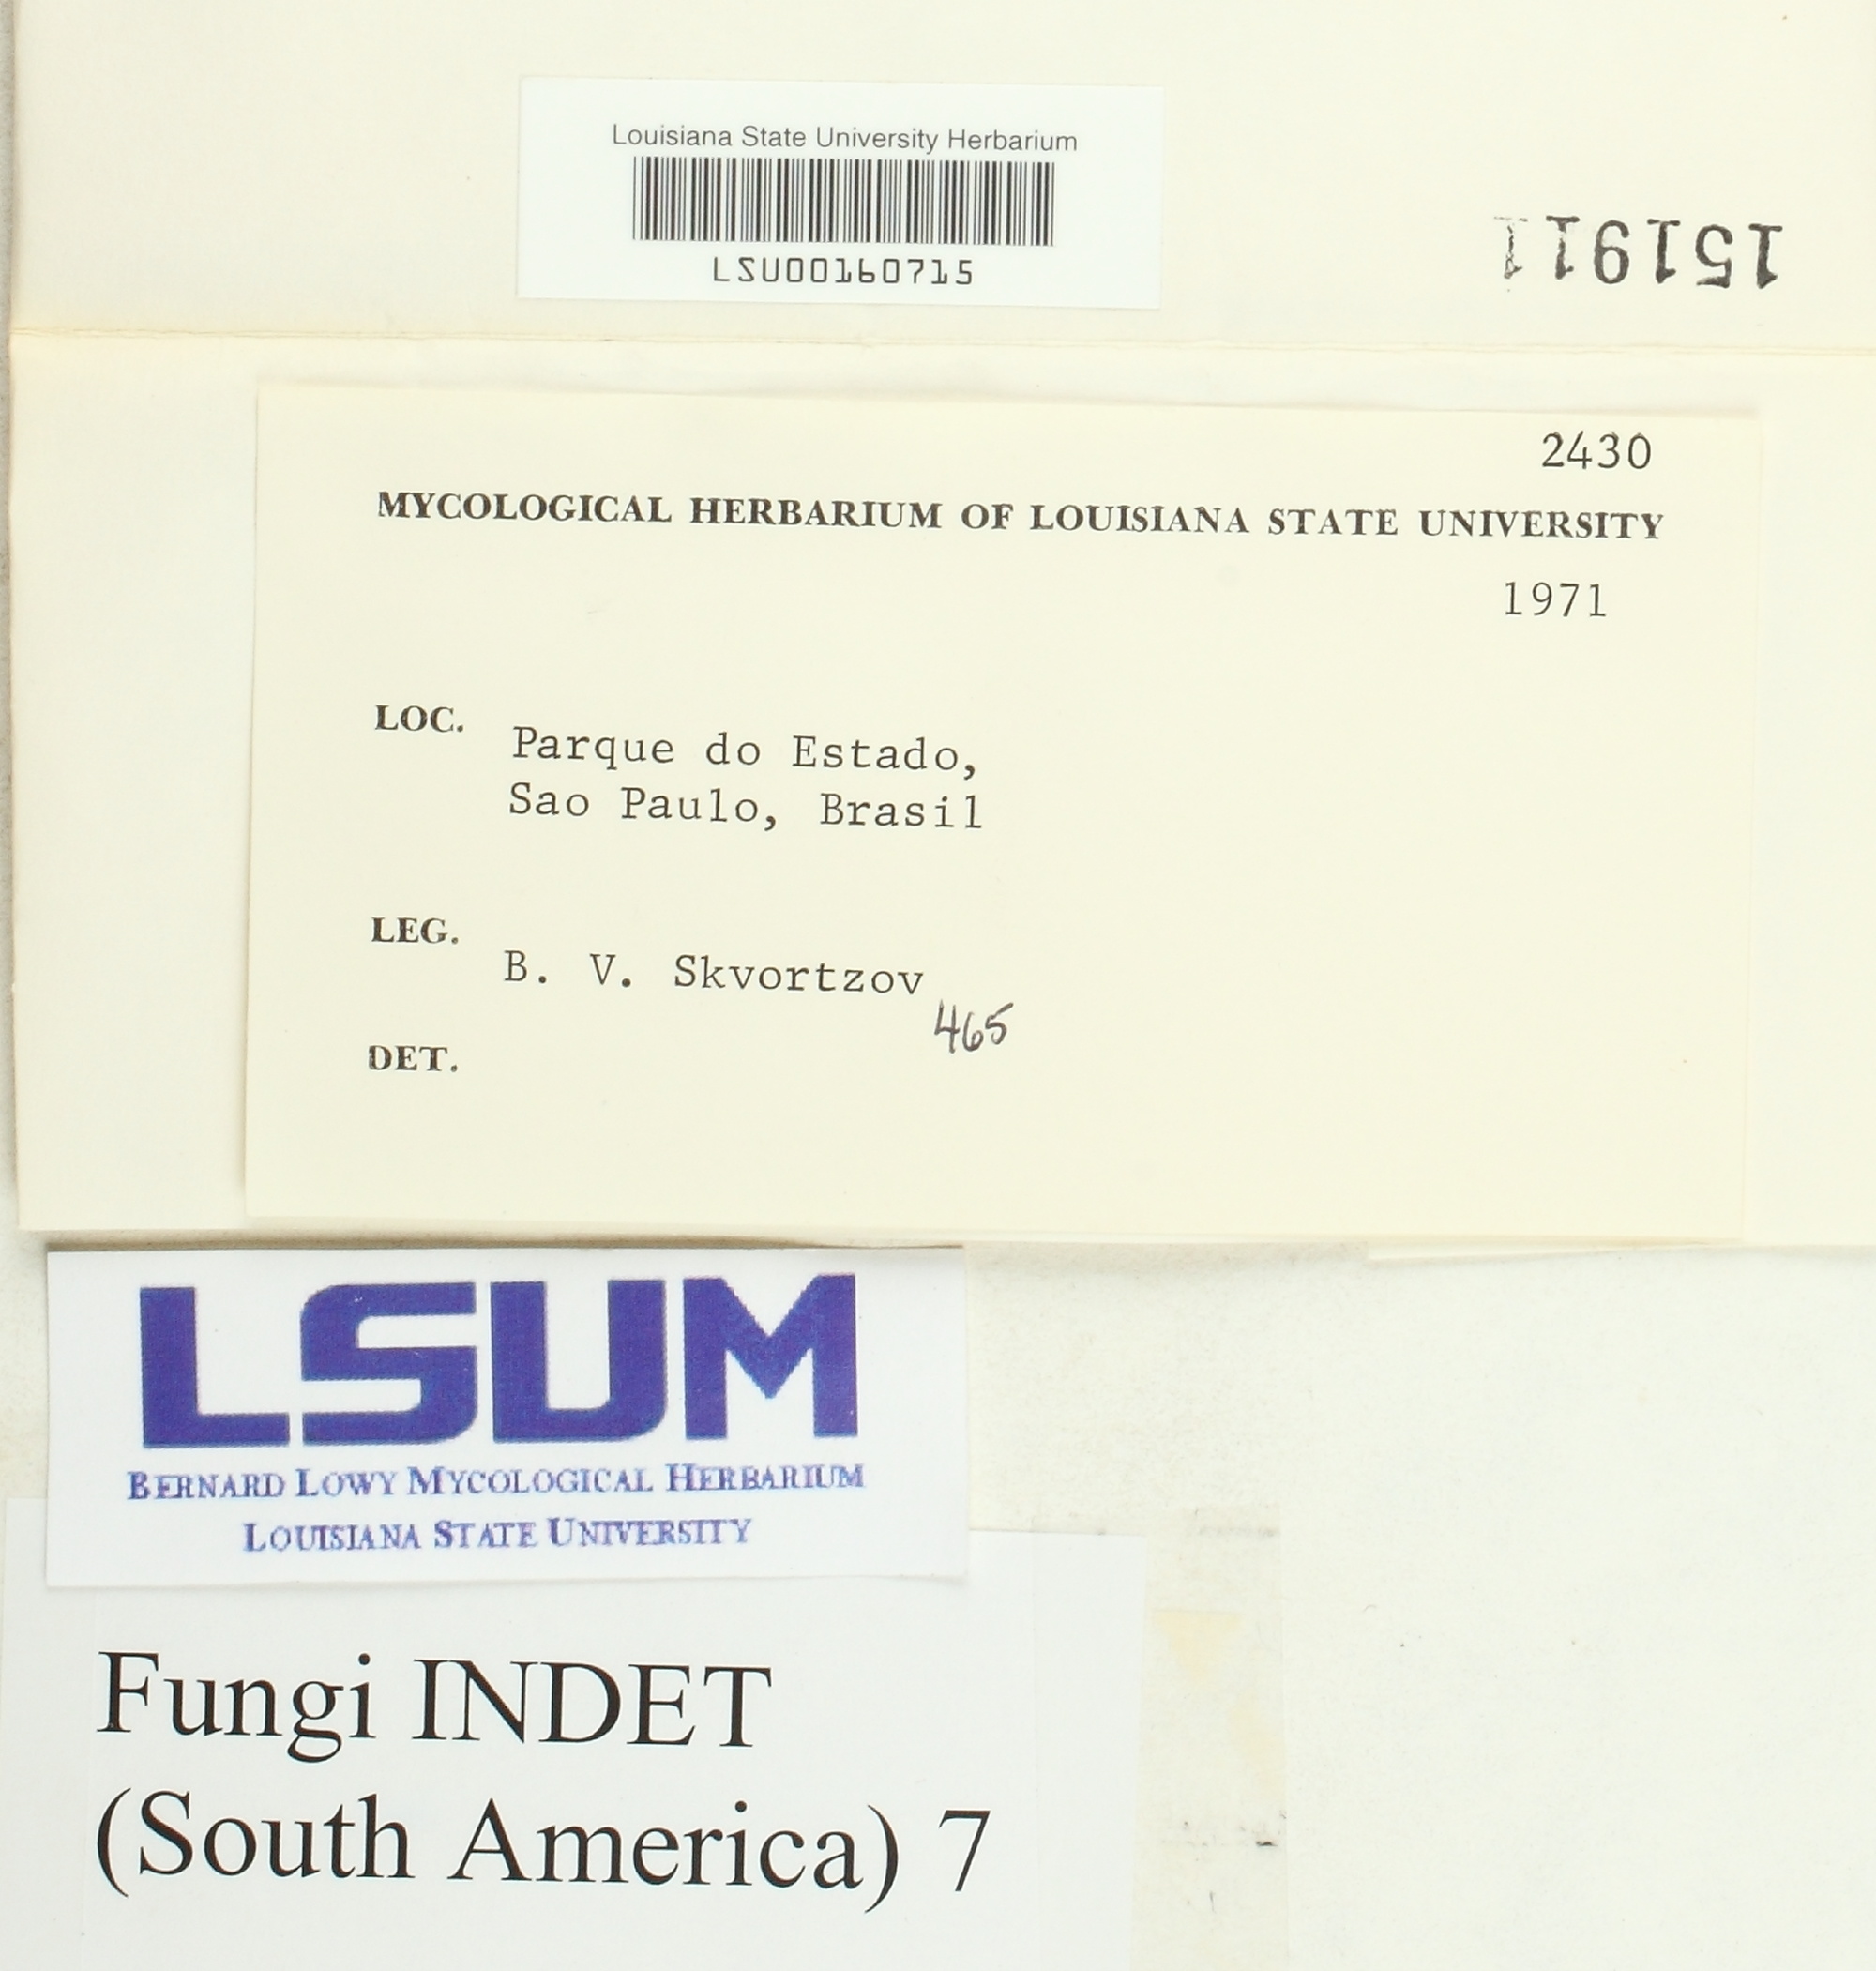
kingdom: Fungi
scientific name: Fungi
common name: Fungi
